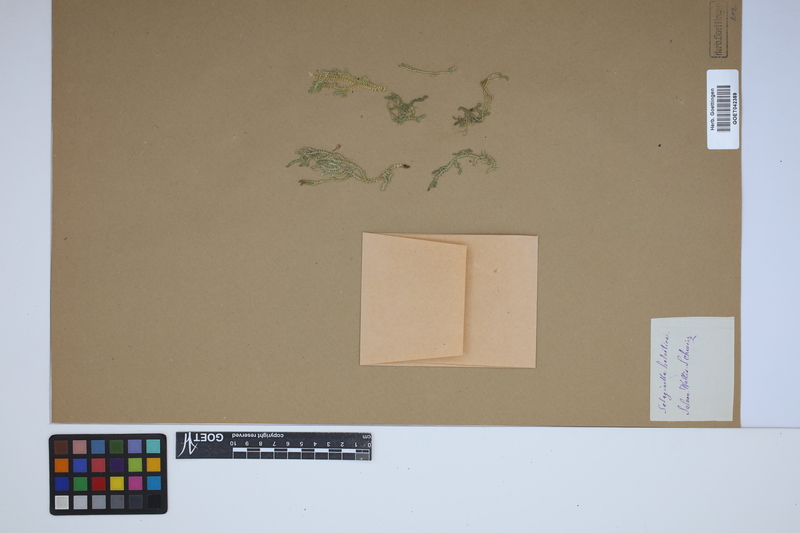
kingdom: Plantae
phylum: Tracheophyta
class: Lycopodiopsida
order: Selaginellales
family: Selaginellaceae
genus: Selaginella
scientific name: Selaginella helvetica
